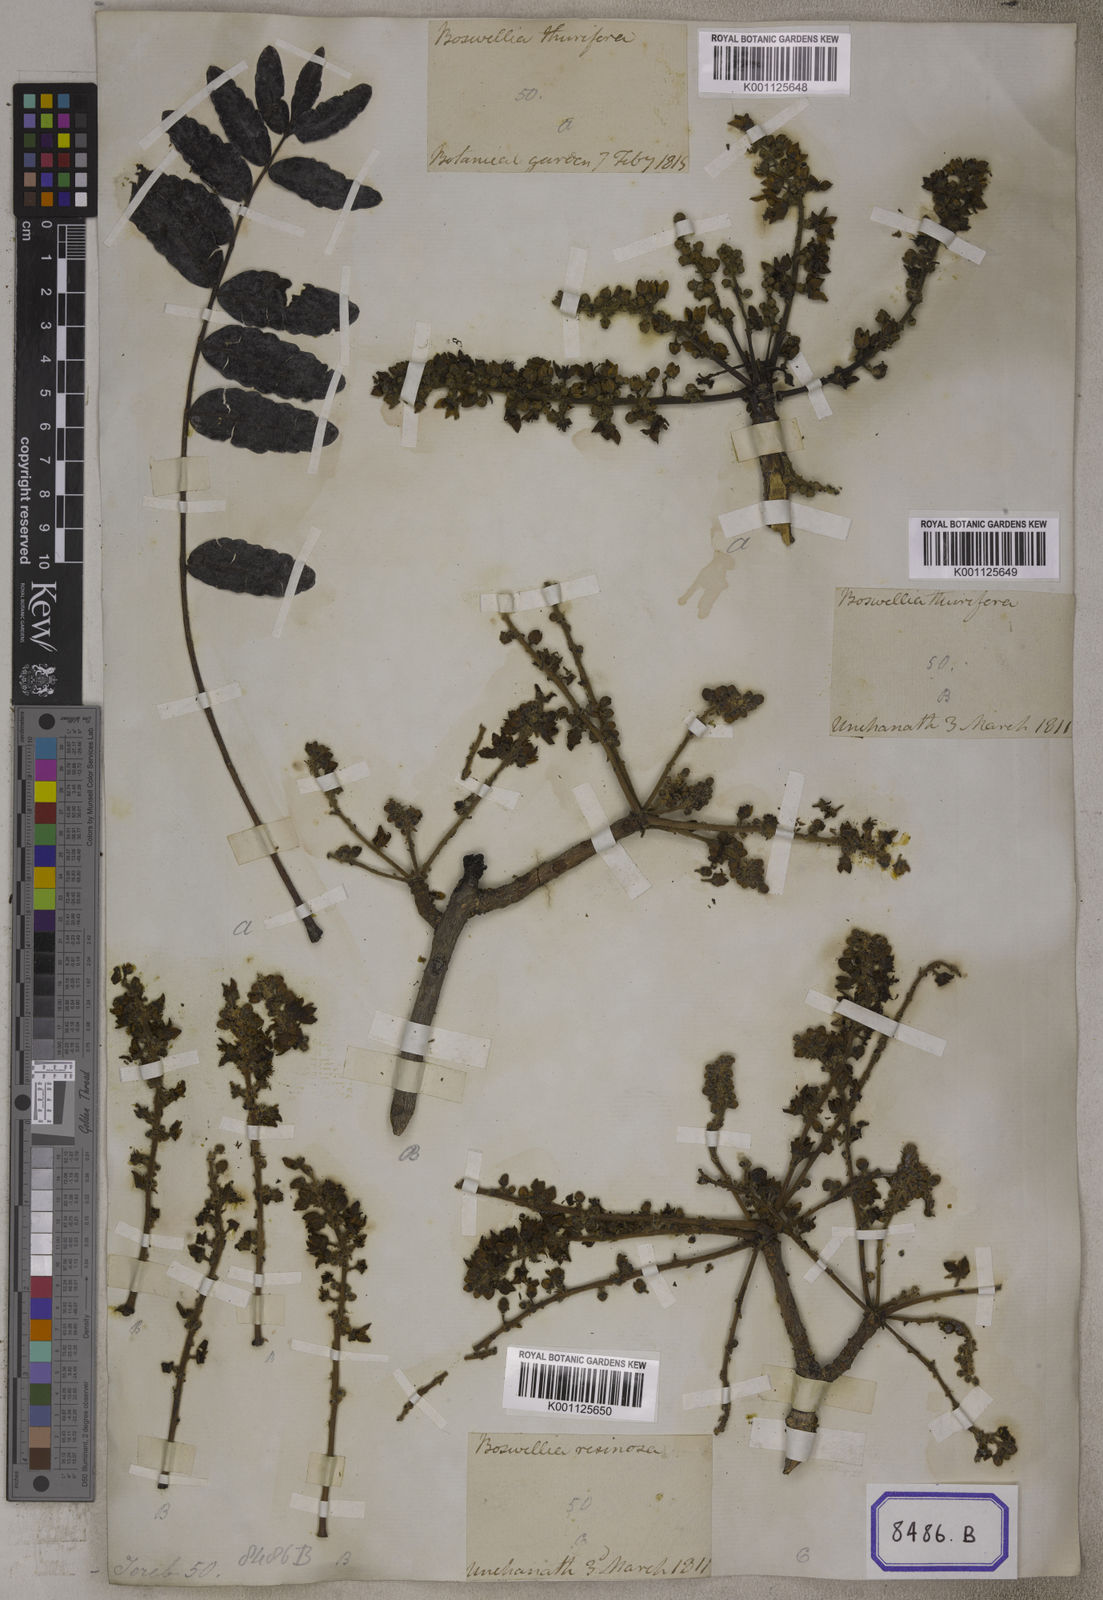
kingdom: Plantae
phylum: Tracheophyta
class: Magnoliopsida
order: Sapindales
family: Burseraceae
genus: Boswellia
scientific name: Boswellia serrata
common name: Boswellia
